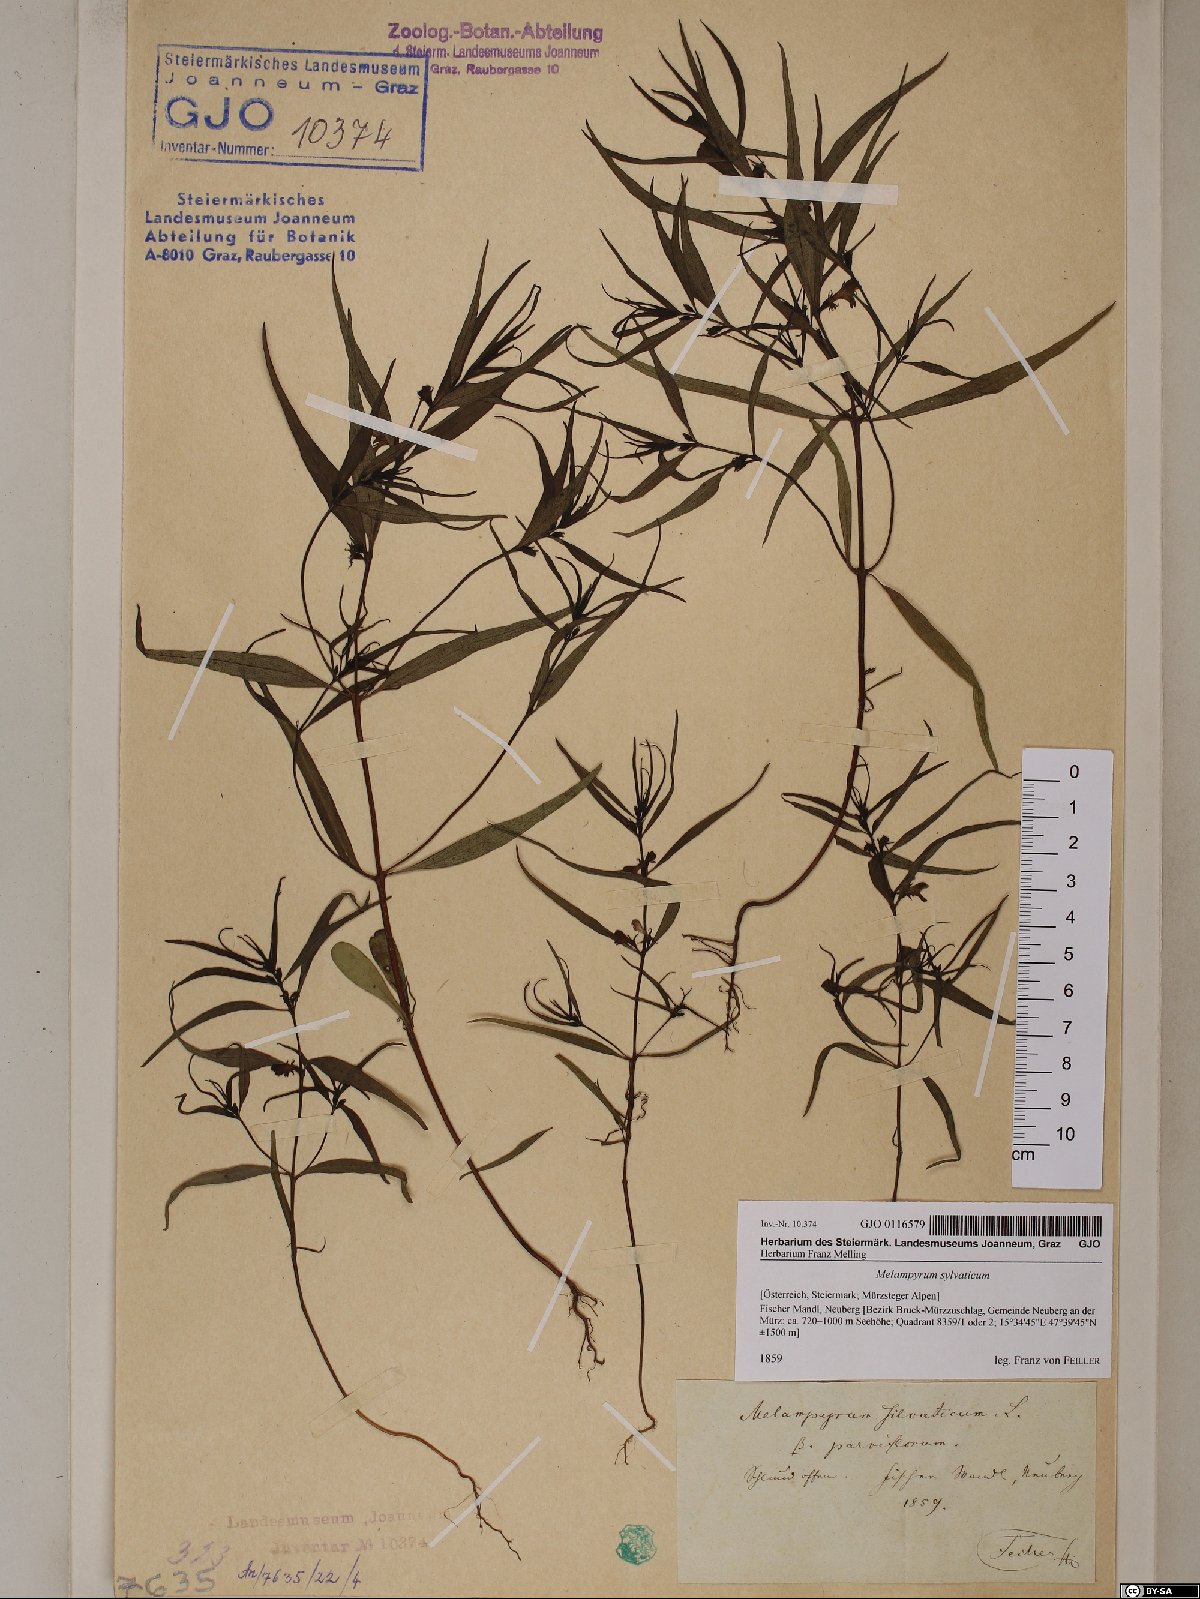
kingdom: Plantae
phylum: Tracheophyta
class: Magnoliopsida
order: Lamiales
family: Orobanchaceae
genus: Melampyrum
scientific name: Melampyrum sylvaticum
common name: Small cow-wheat
